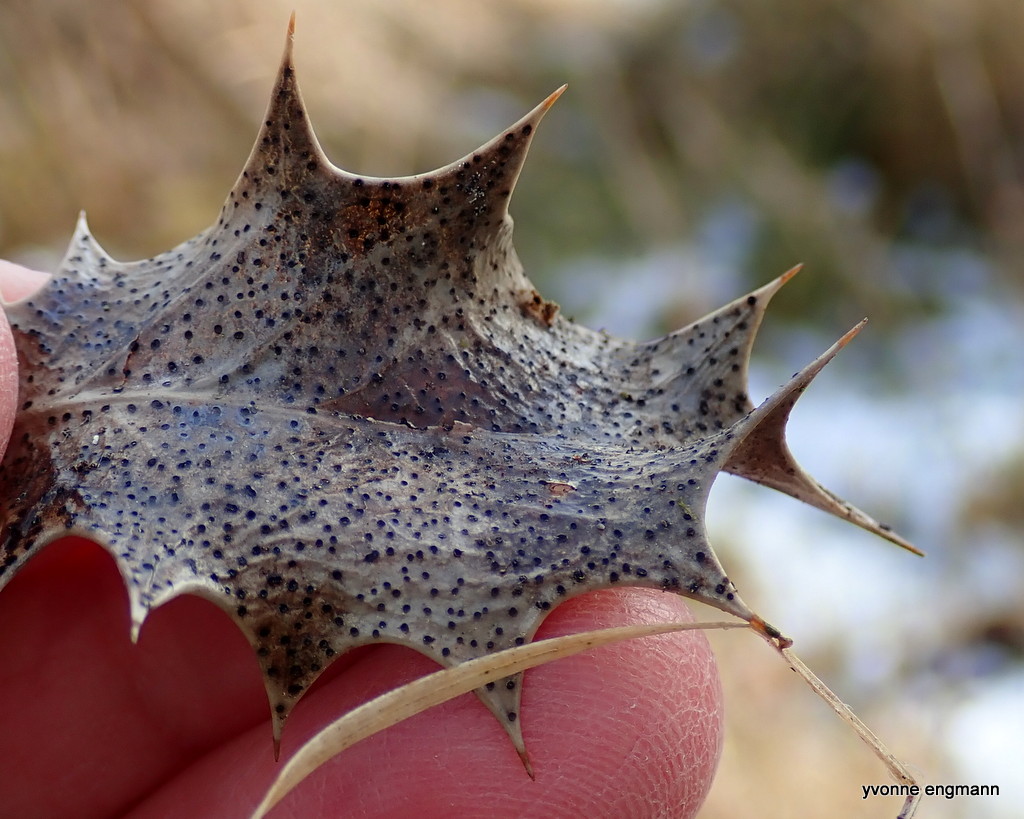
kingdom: Fungi
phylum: Ascomycota
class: Leotiomycetes
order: Helotiales
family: Cenangiaceae
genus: Trochila
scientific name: Trochila ilicina
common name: kristtorn-lågskive
